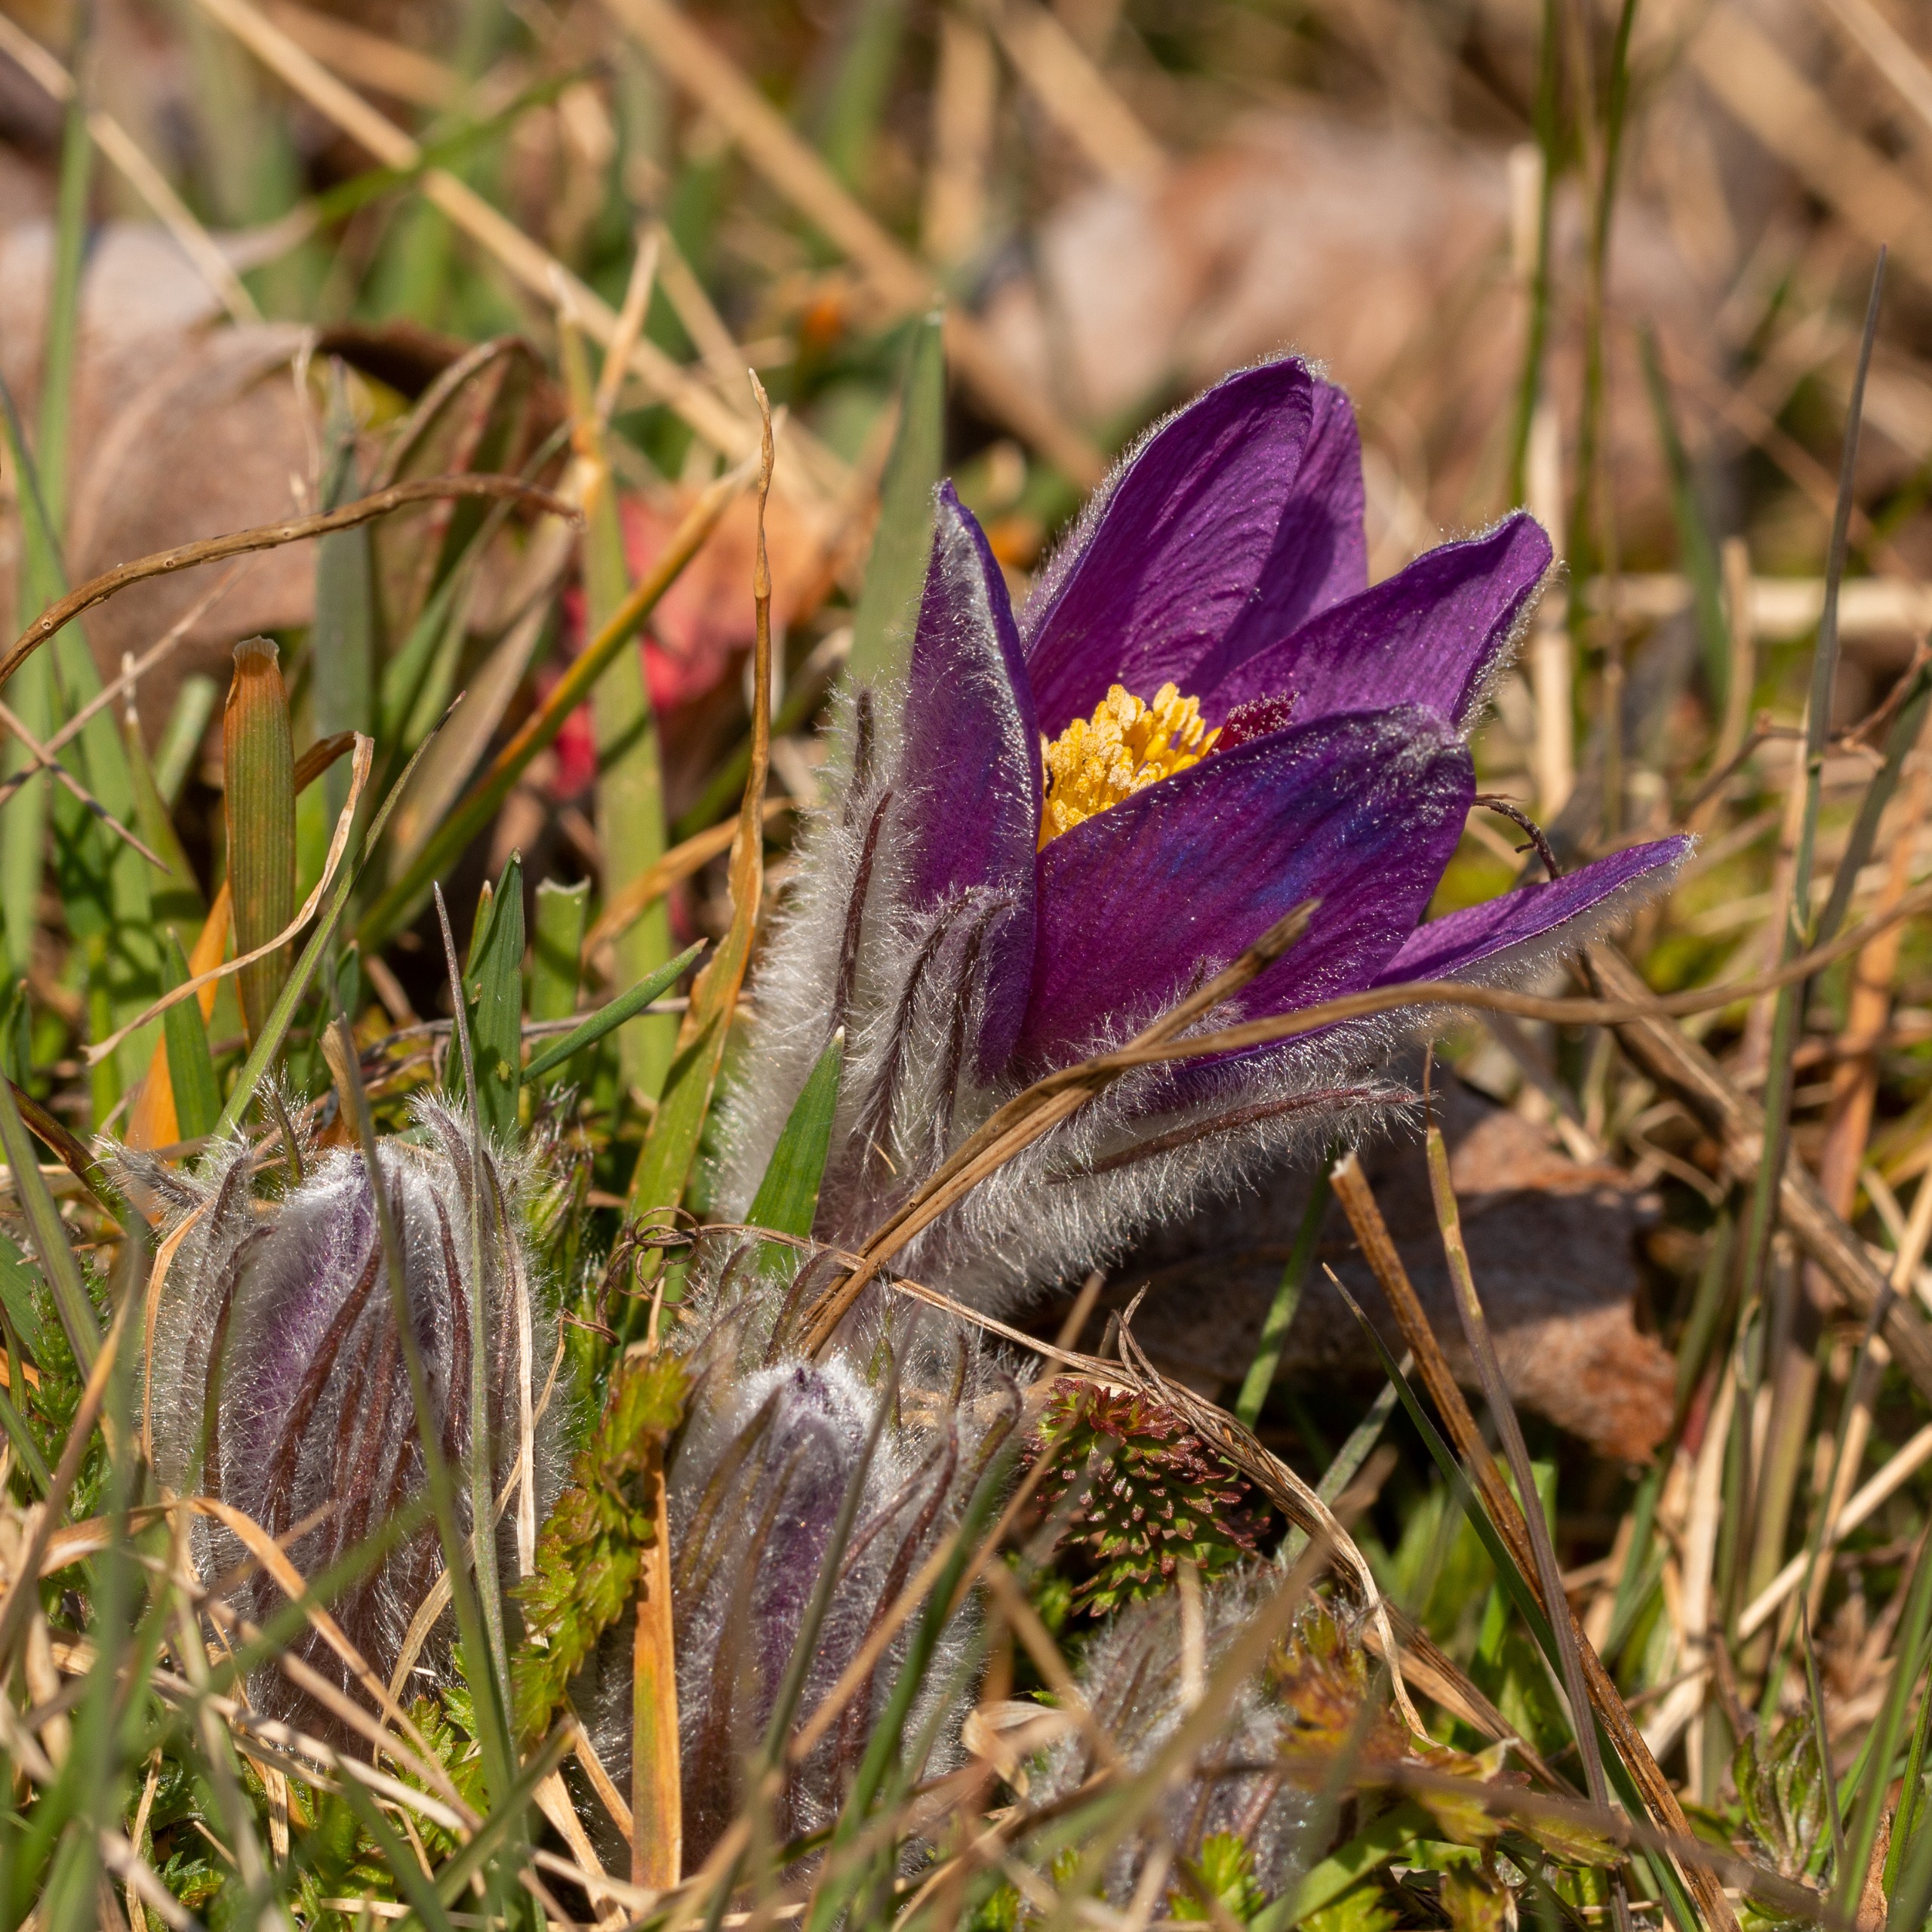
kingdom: Plantae
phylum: Tracheophyta
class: Magnoliopsida
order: Ranunculales
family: Ranunculaceae
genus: Pulsatilla
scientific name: Pulsatilla vulgaris
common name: Opret kobjælde
